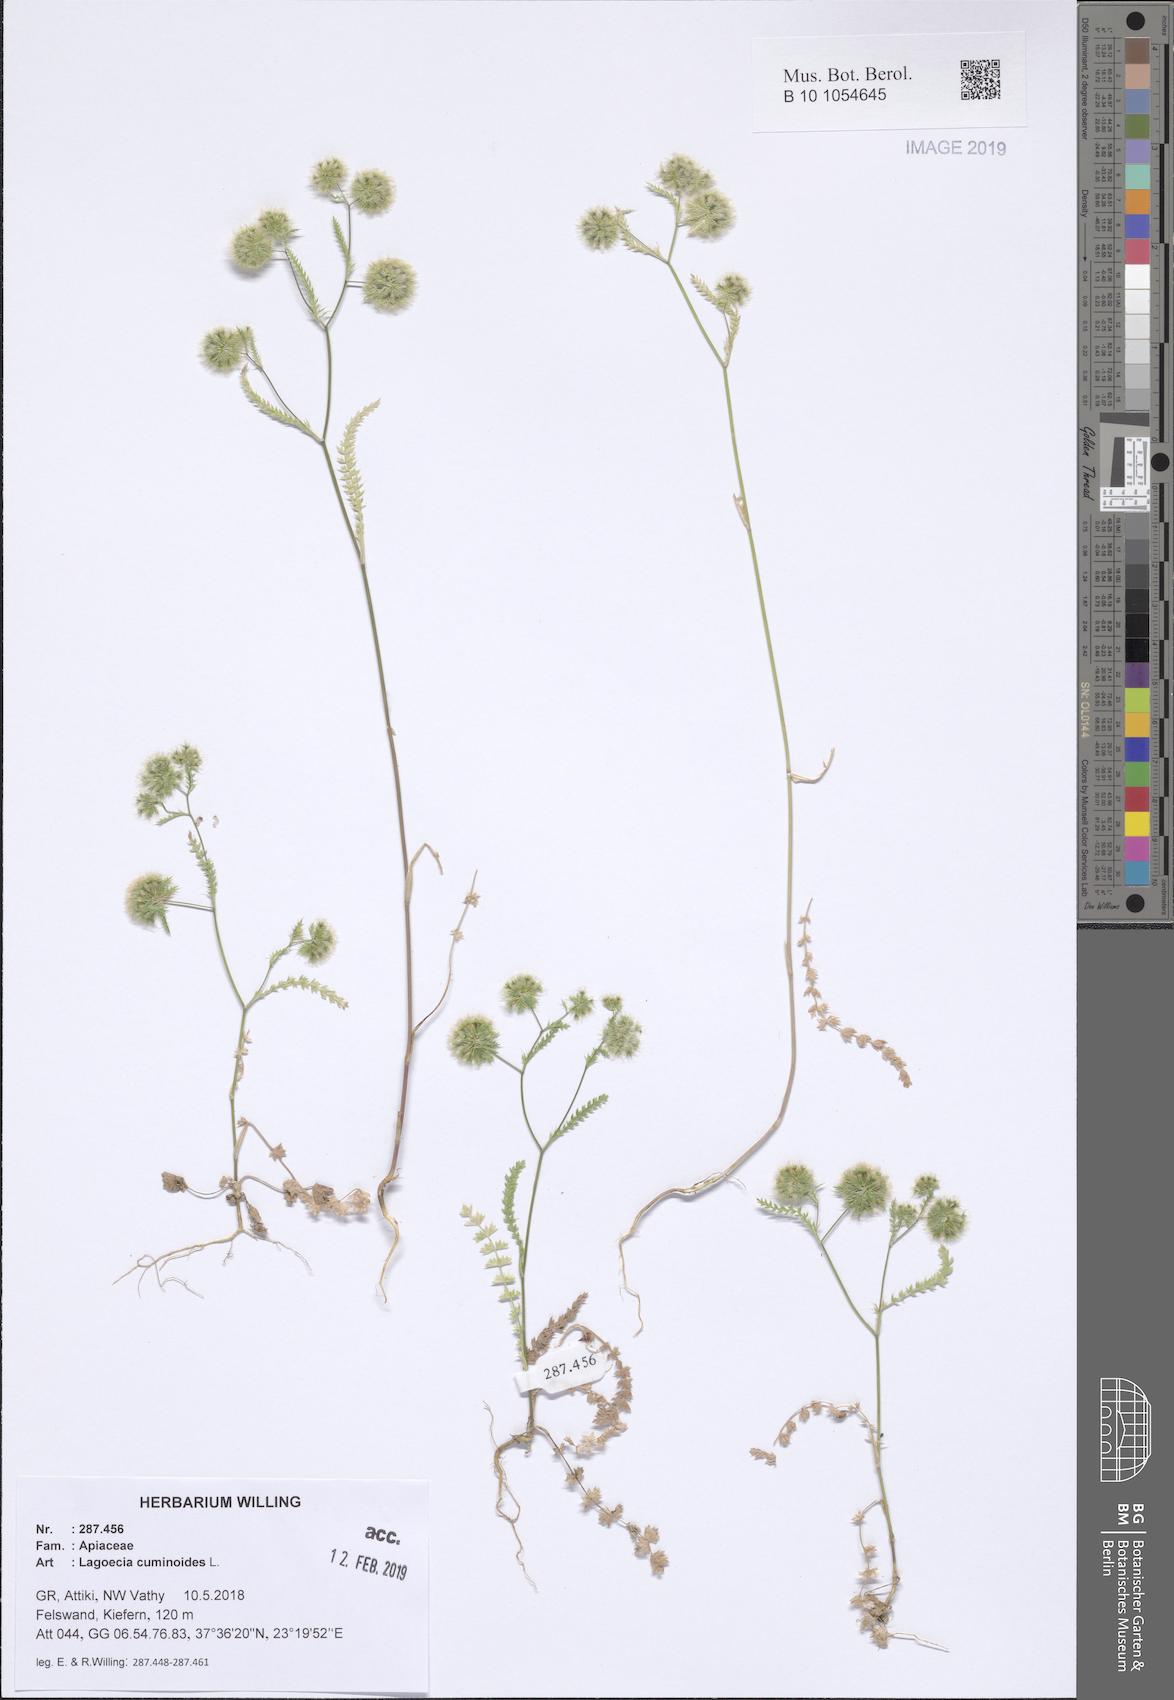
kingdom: Plantae
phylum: Tracheophyta
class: Magnoliopsida
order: Apiales
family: Apiaceae
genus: Lagoecia
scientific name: Lagoecia cuminoides
